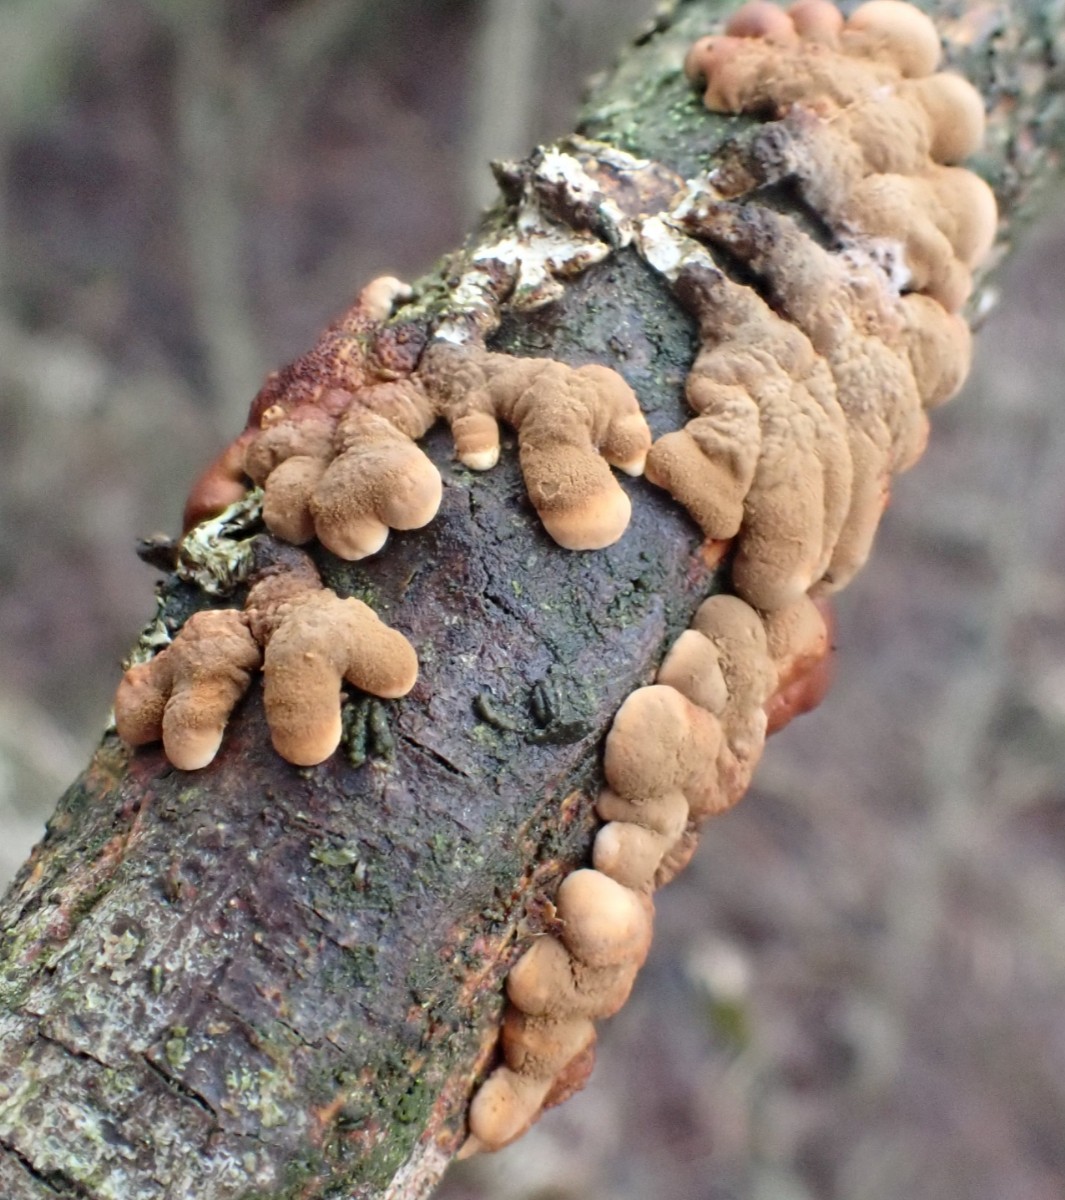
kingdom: Fungi
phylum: Ascomycota
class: Sordariomycetes
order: Hypocreales
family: Hypocreaceae
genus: Hypocreopsis
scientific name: Hypocreopsis lichenoides
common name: pilfinger
